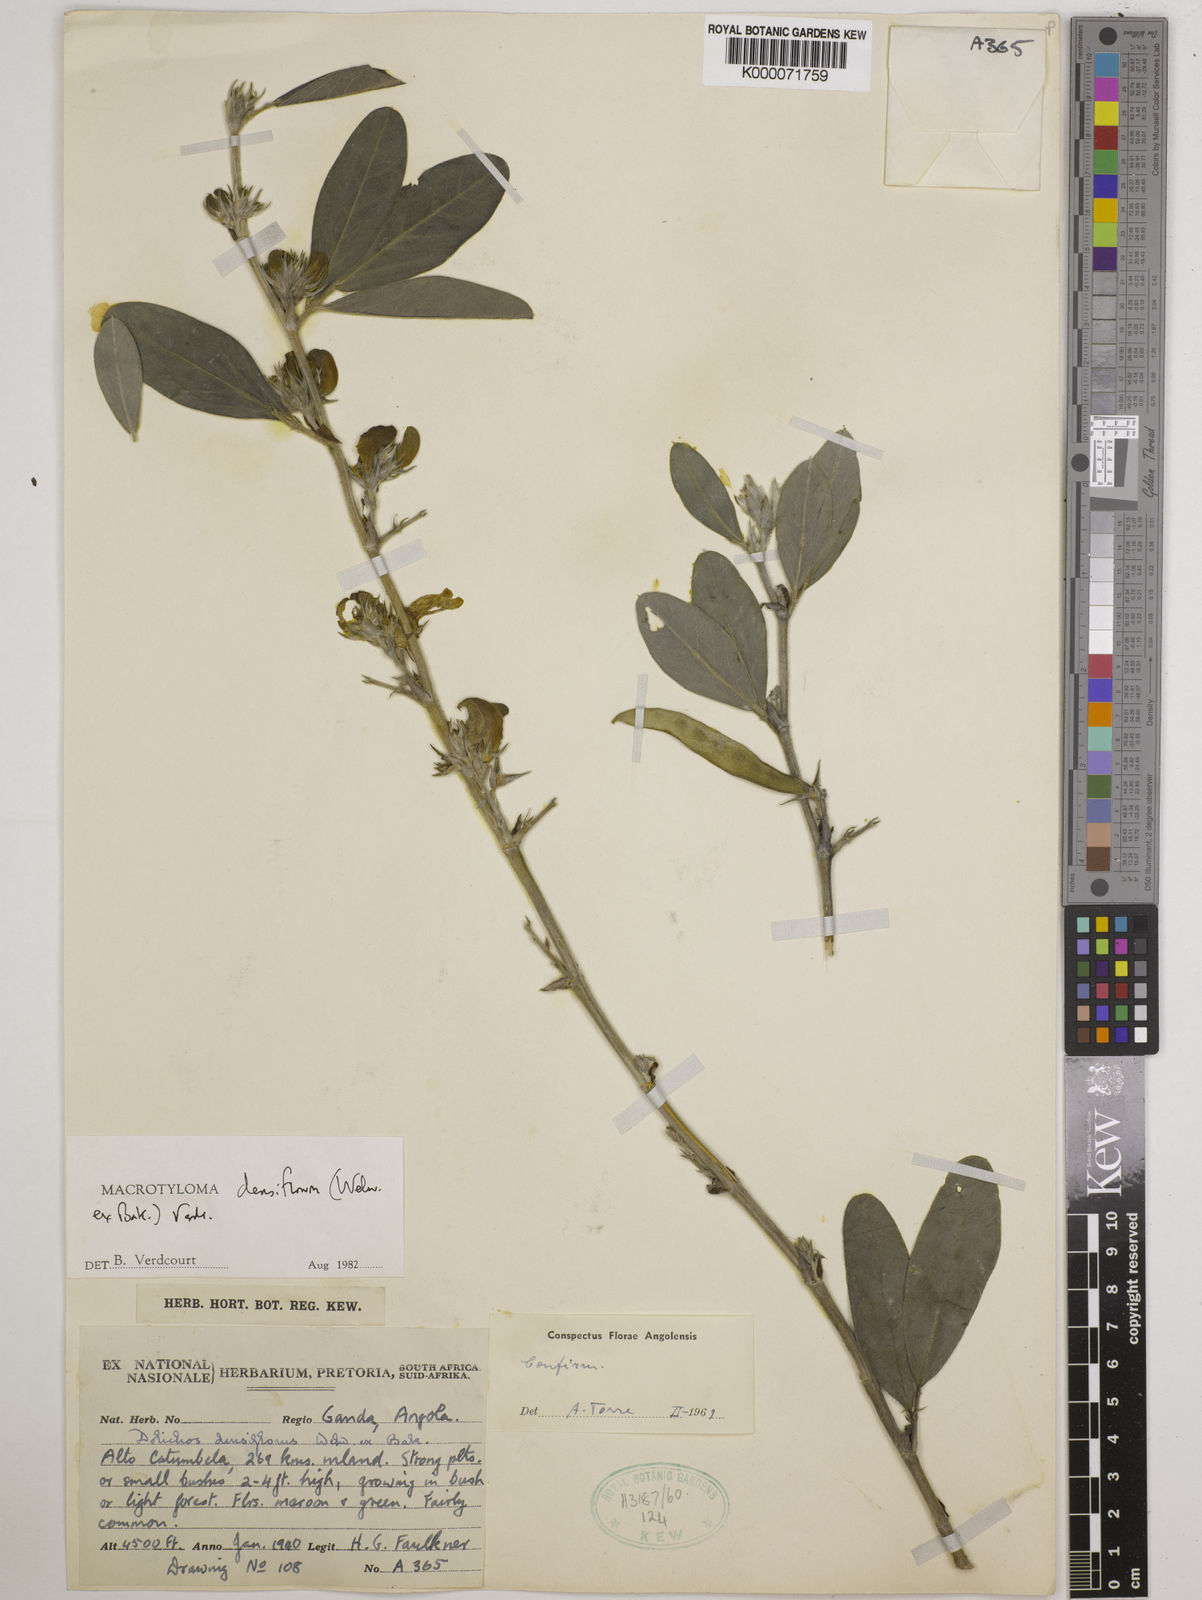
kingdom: Plantae
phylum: Tracheophyta
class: Magnoliopsida
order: Fabales
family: Fabaceae
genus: Macrotyloma
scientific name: Macrotyloma densiflorum
